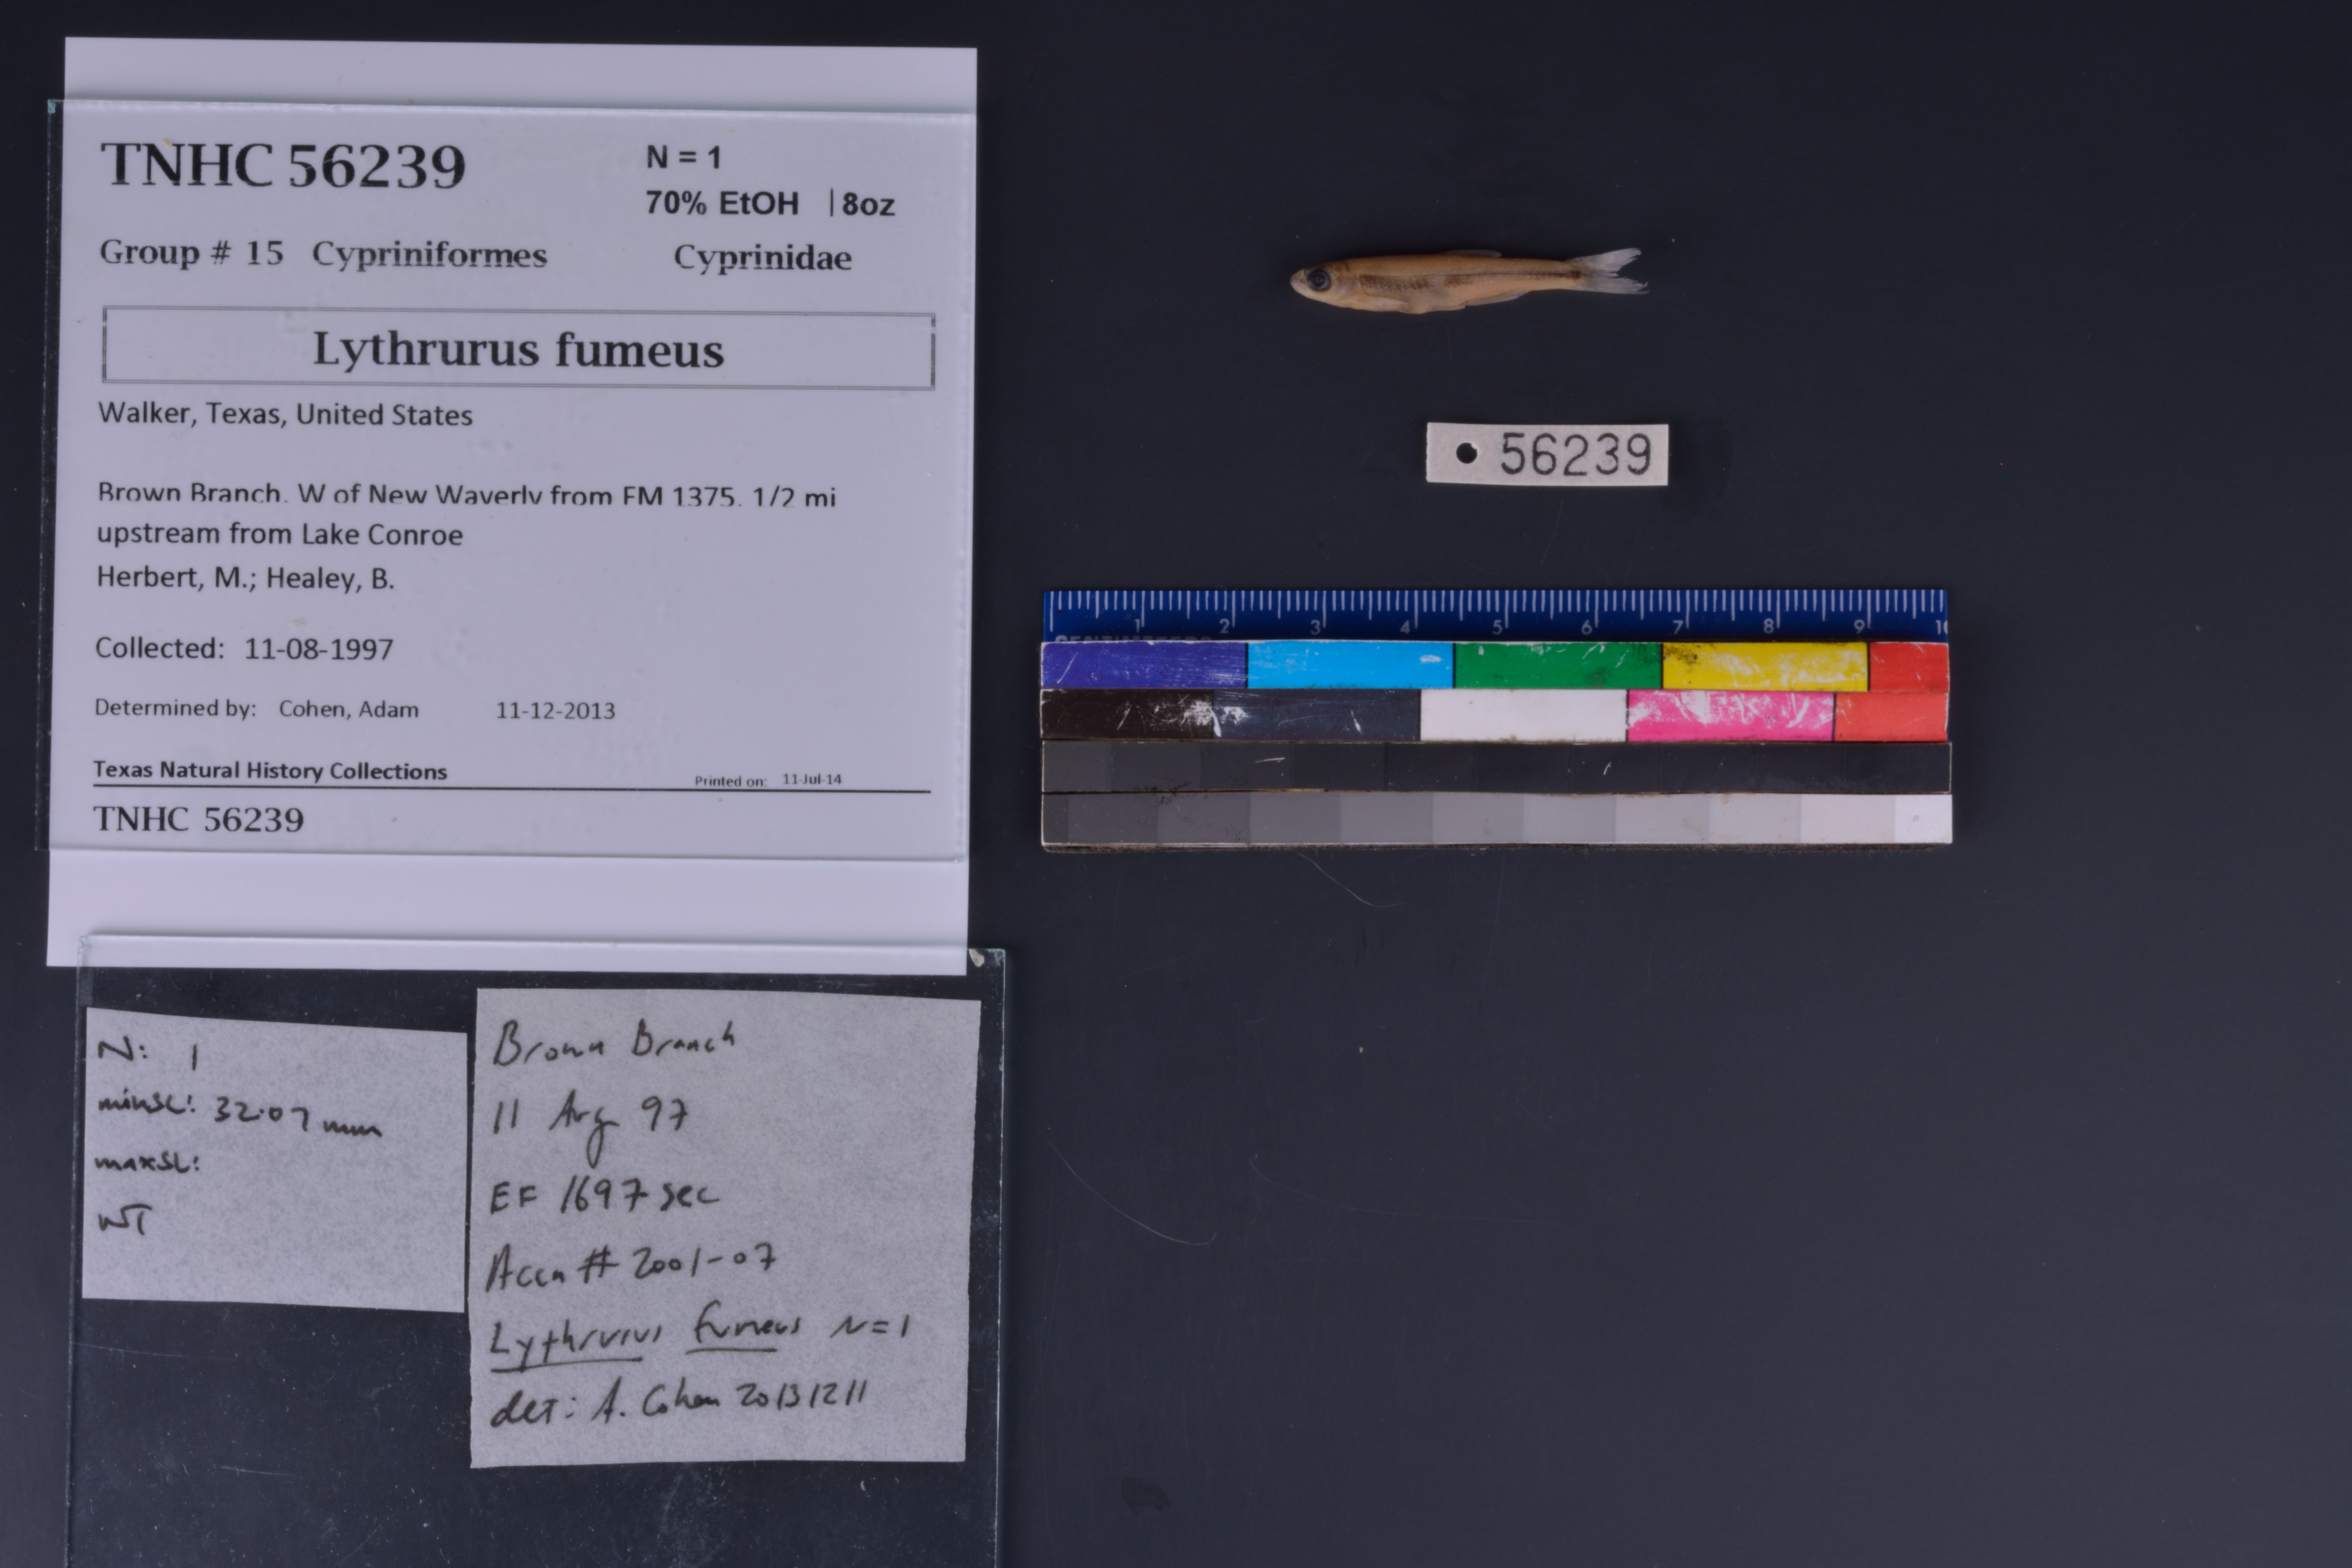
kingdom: Animalia
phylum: Chordata
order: Cypriniformes
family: Cyprinidae
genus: Lythrurus
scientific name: Lythrurus fumeus
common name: Ribbon shiner
